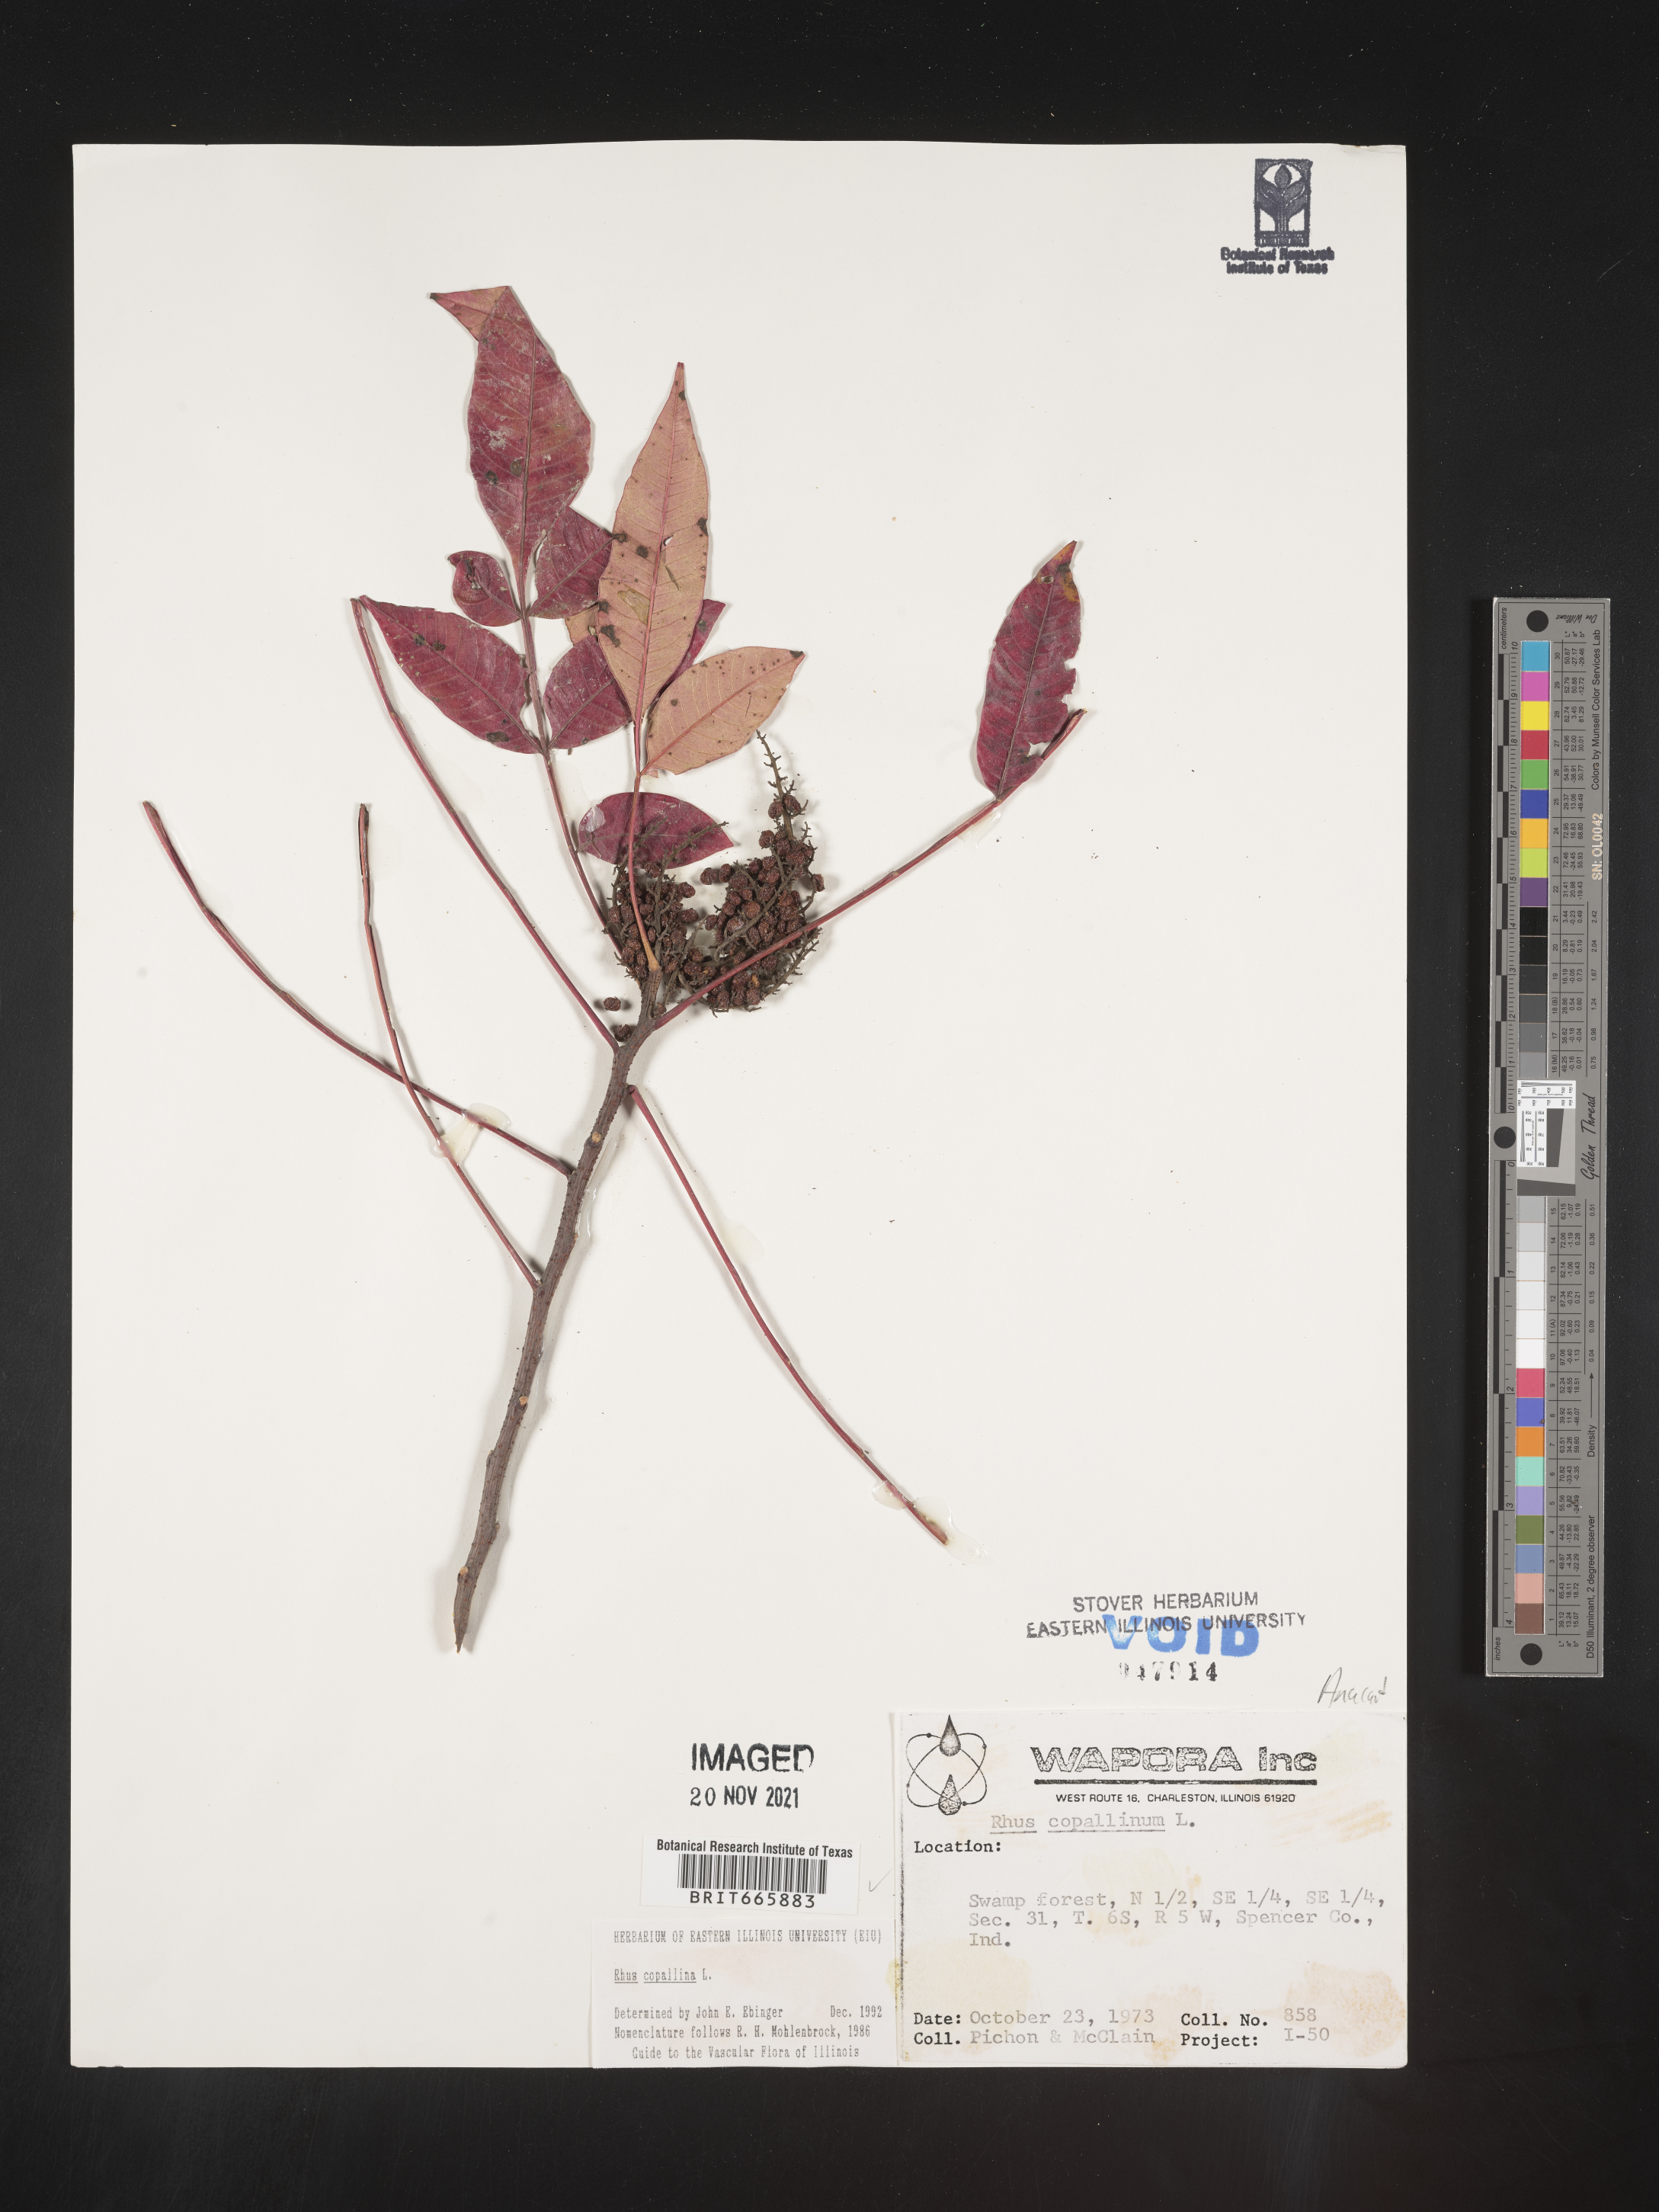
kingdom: Plantae
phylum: Tracheophyta
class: Magnoliopsida
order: Sapindales
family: Anacardiaceae
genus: Rhus
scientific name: Rhus copallina
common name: Shining sumac
